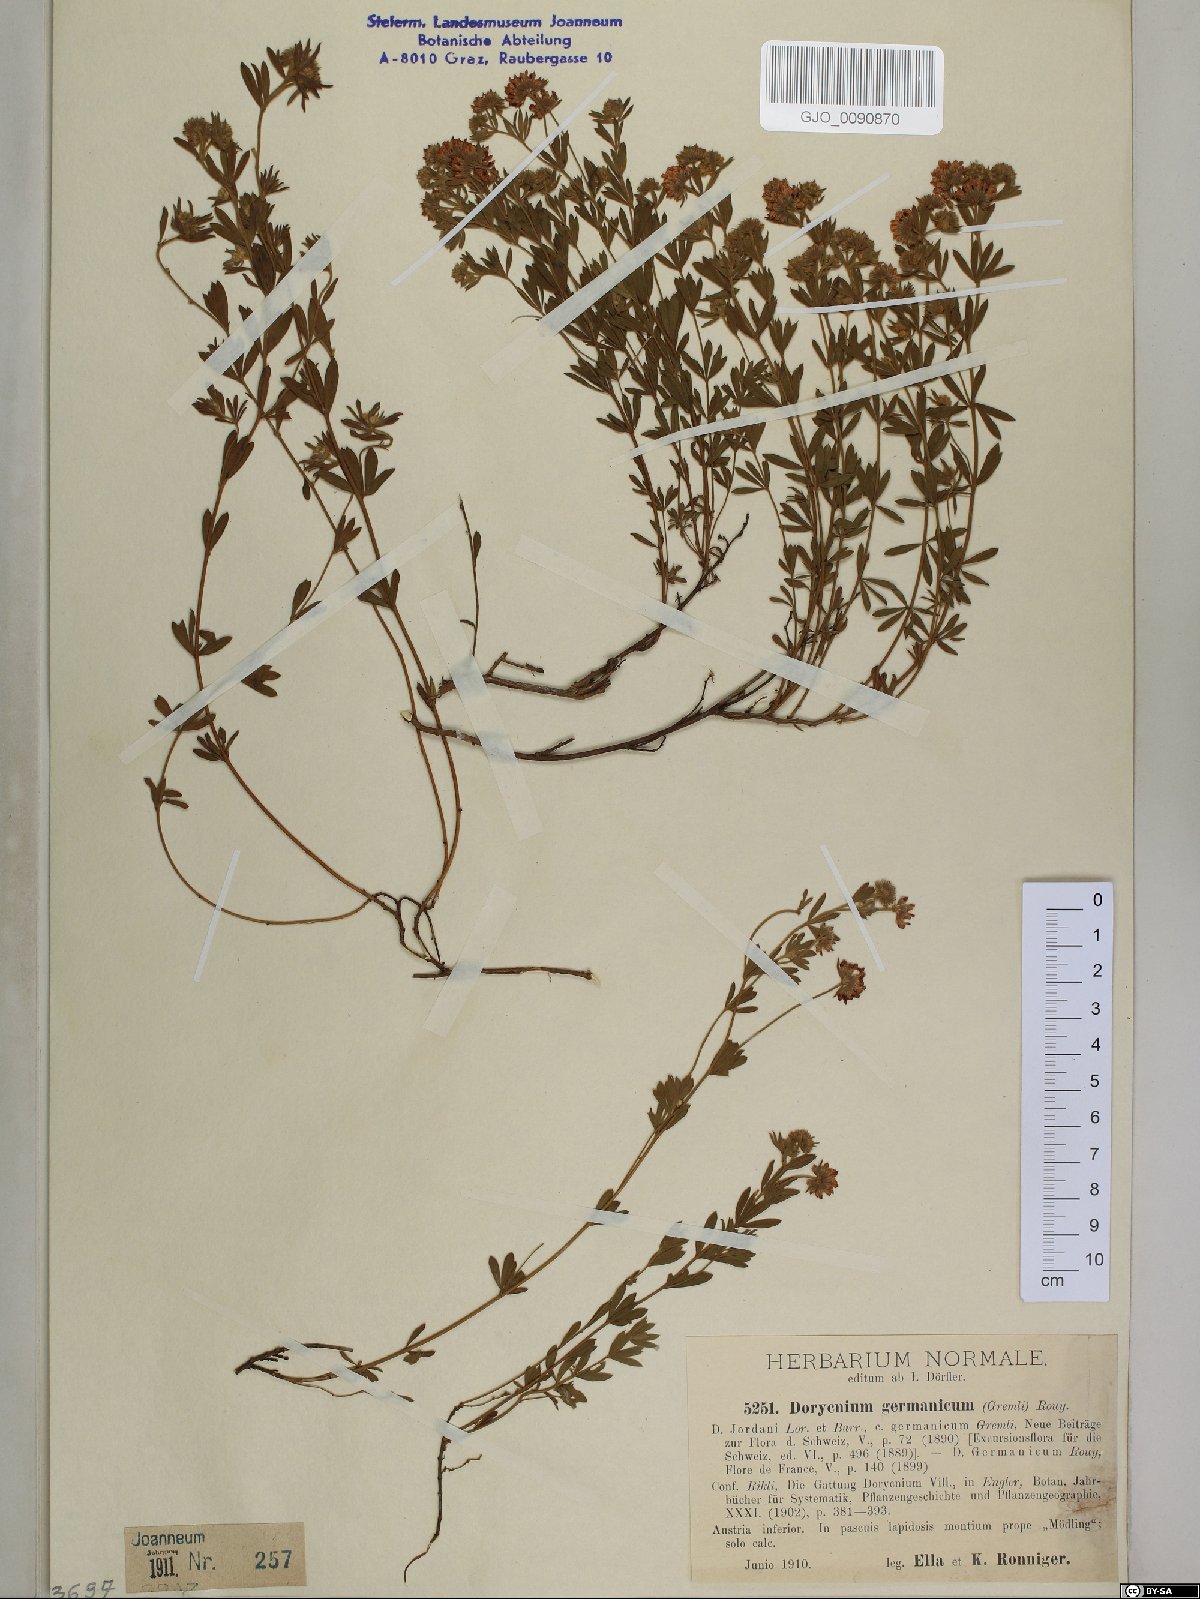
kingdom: Plantae
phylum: Tracheophyta
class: Magnoliopsida
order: Fabales
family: Fabaceae
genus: Lotus
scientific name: Lotus germanicus
